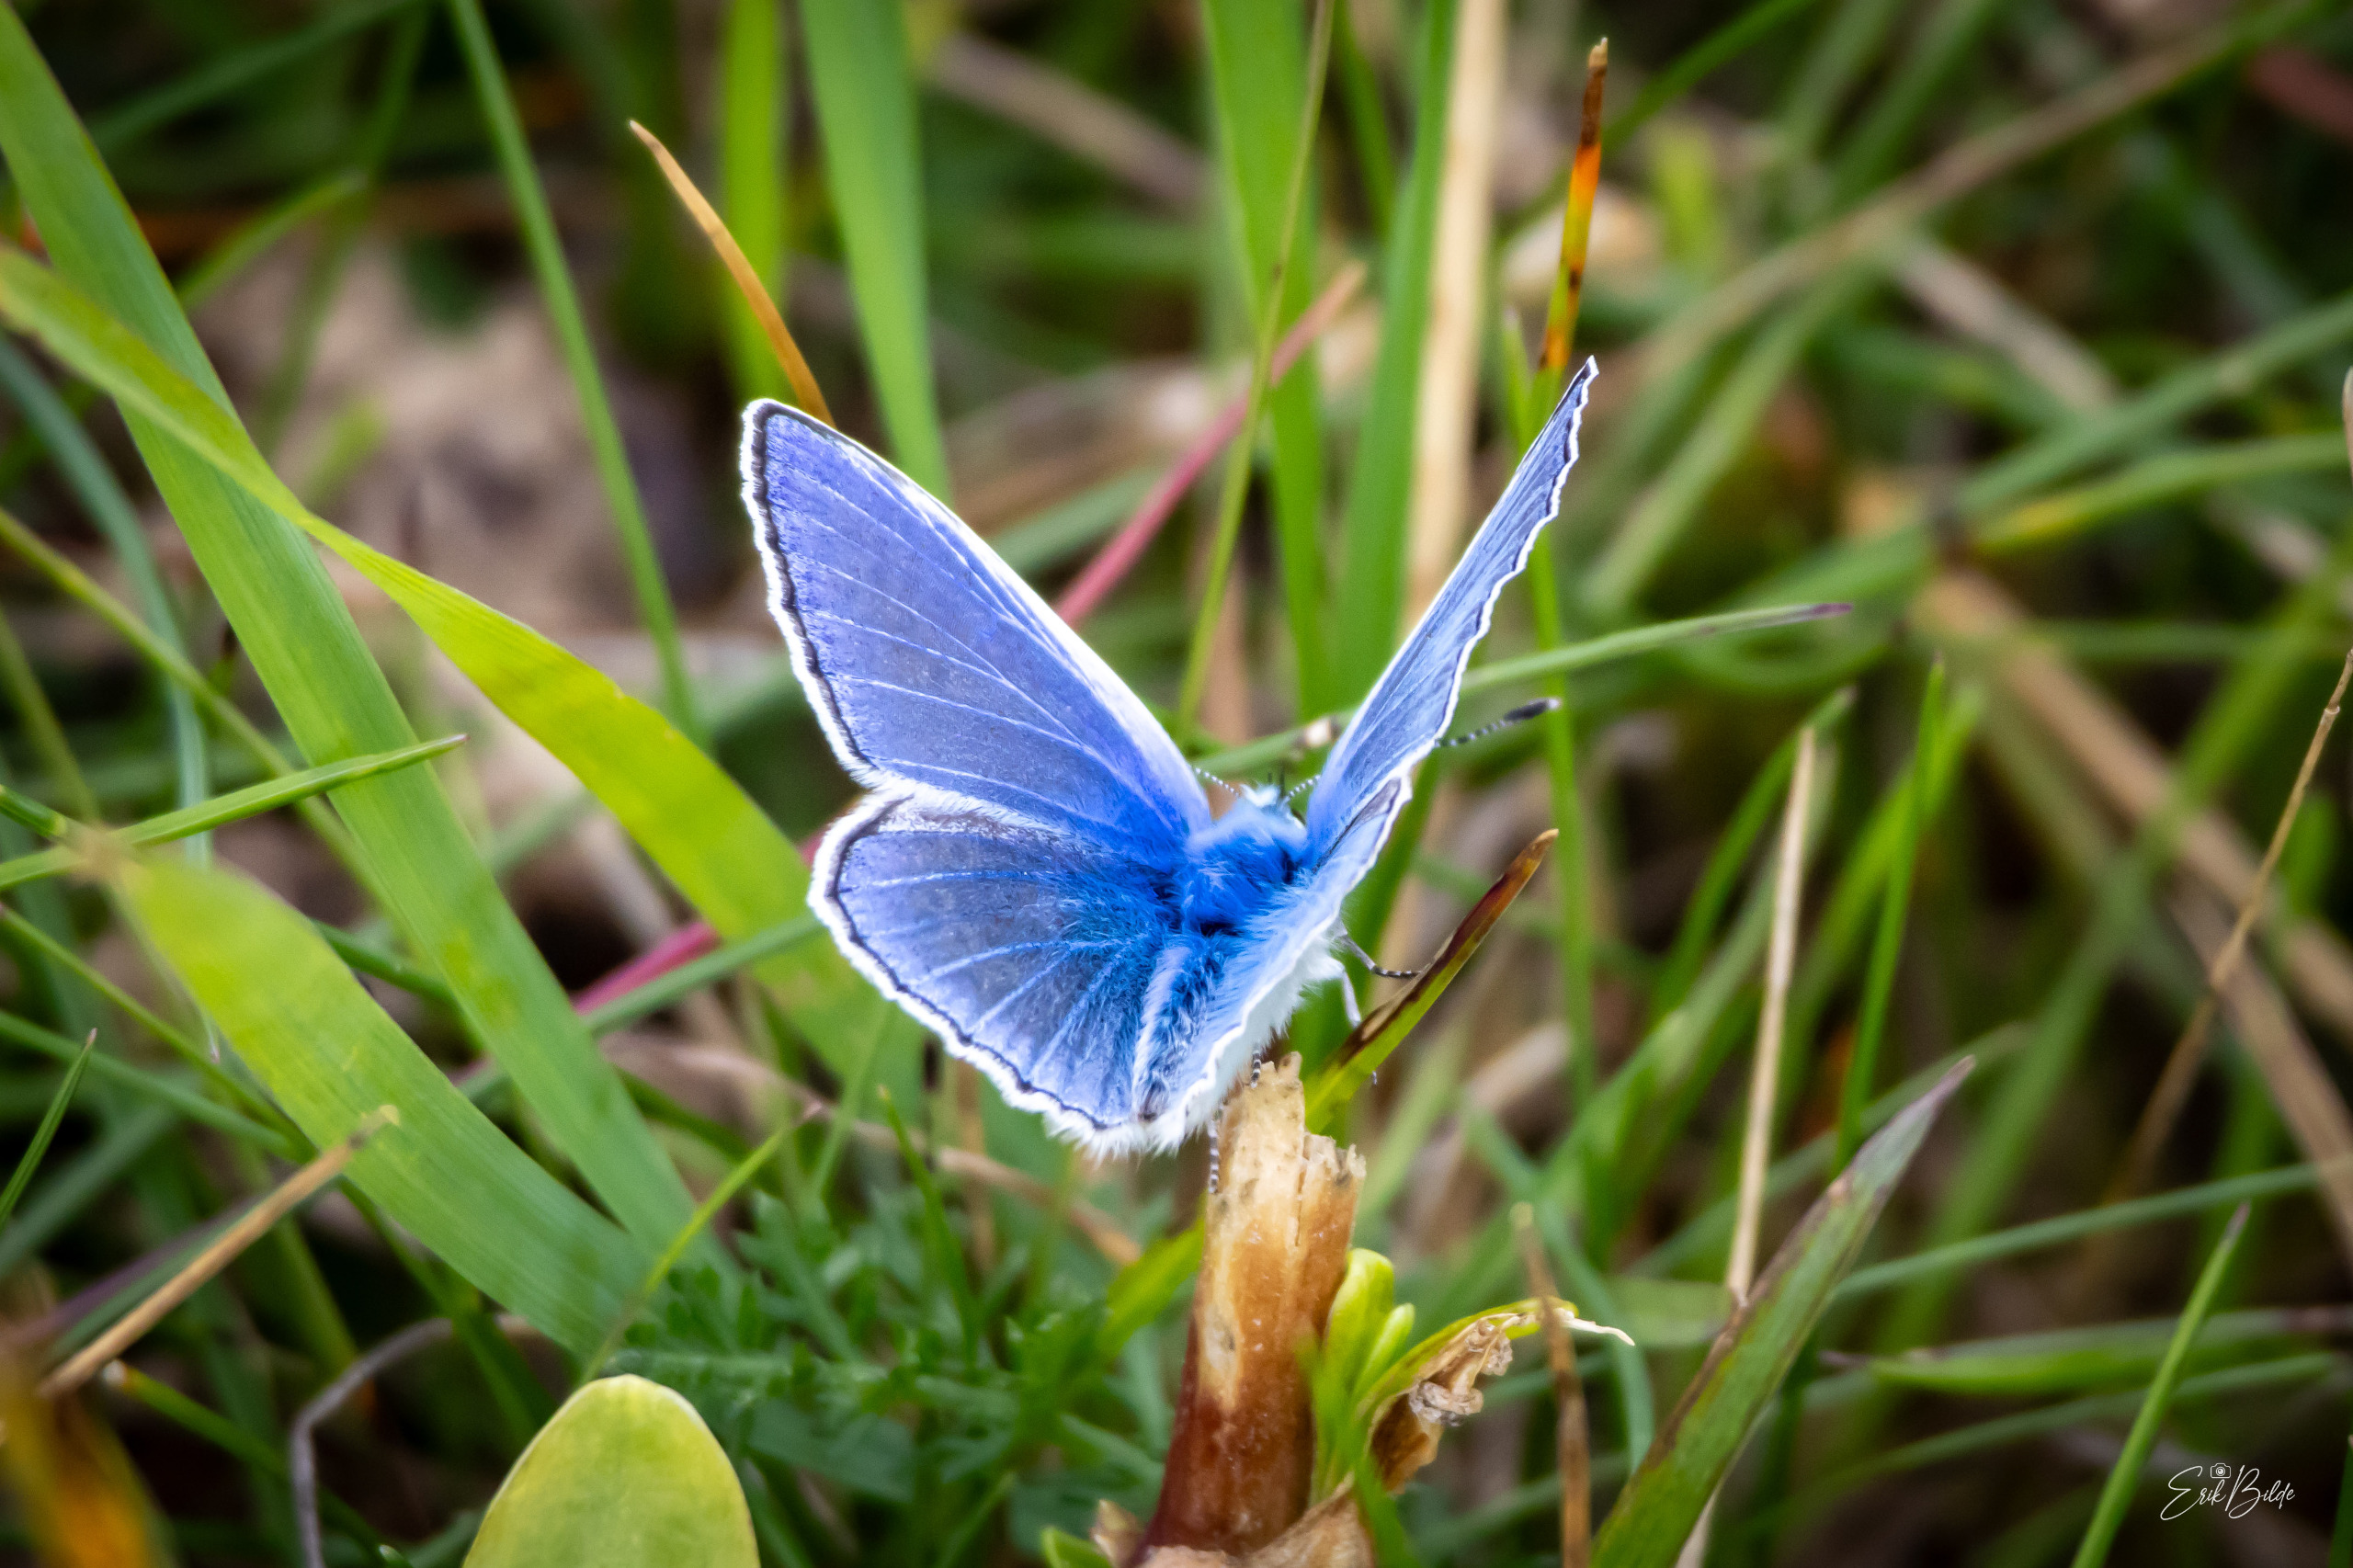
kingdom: Animalia
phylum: Arthropoda
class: Insecta
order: Lepidoptera
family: Lycaenidae
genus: Polyommatus
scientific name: Polyommatus icarus
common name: Almindelig blåfugl
